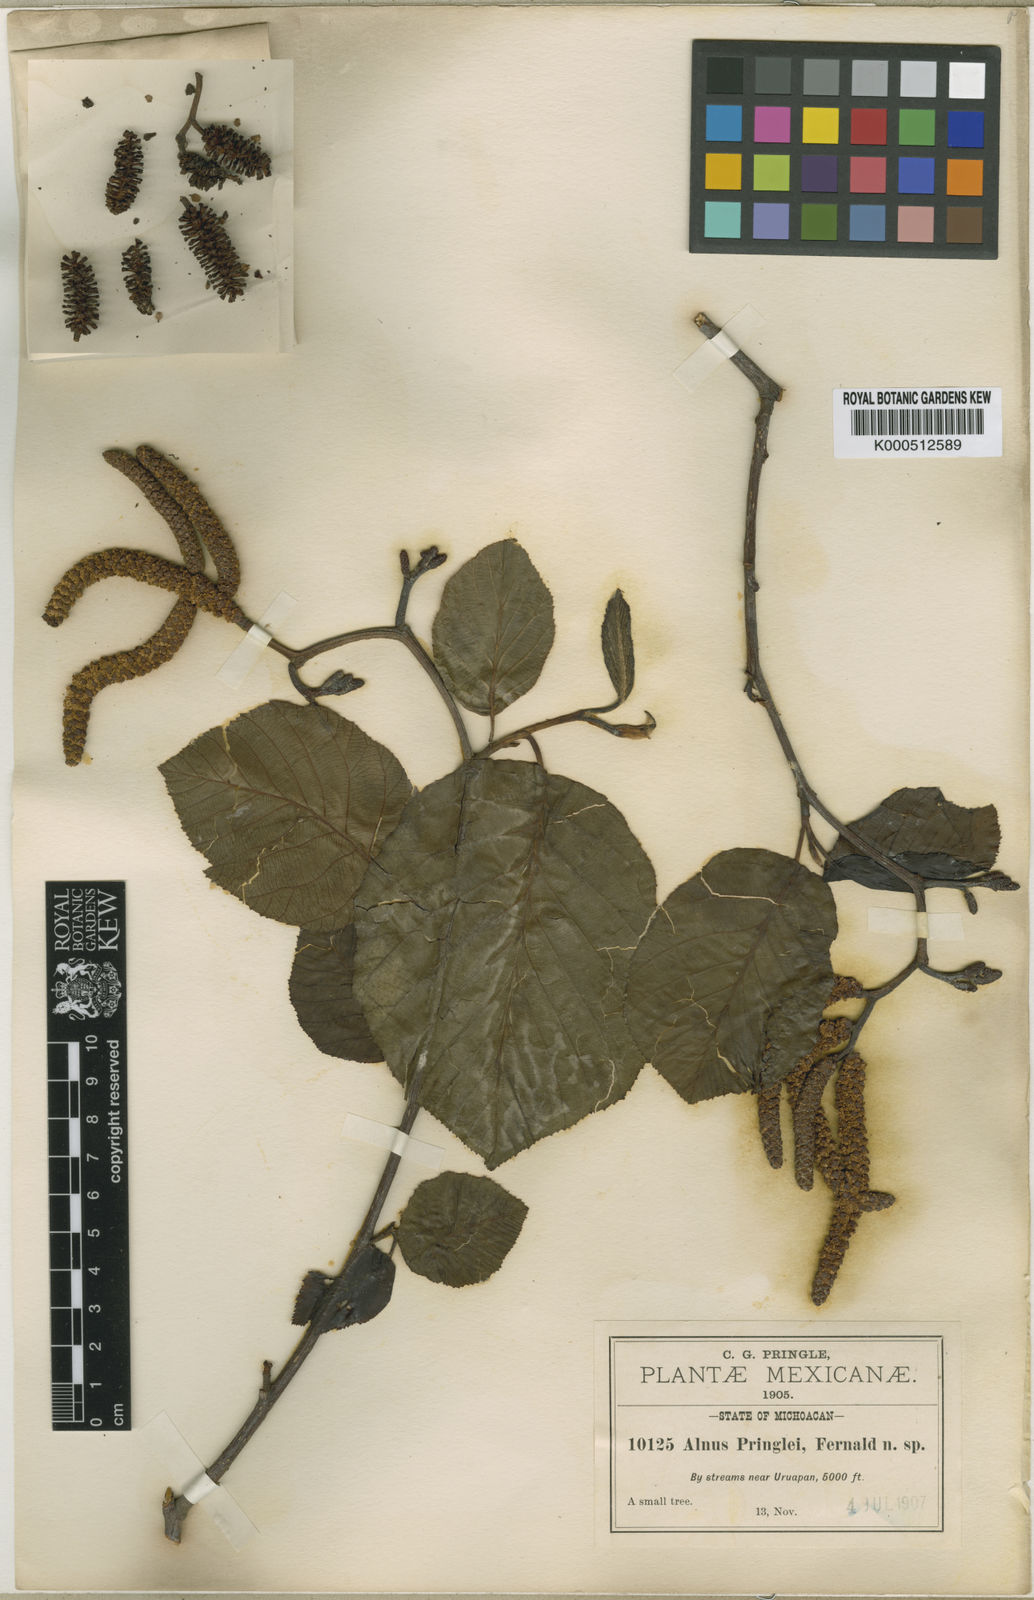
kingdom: Plantae
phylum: Tracheophyta
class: Magnoliopsida
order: Fagales
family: Betulaceae
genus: Alnus
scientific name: Alnus acuminata
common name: Alder
